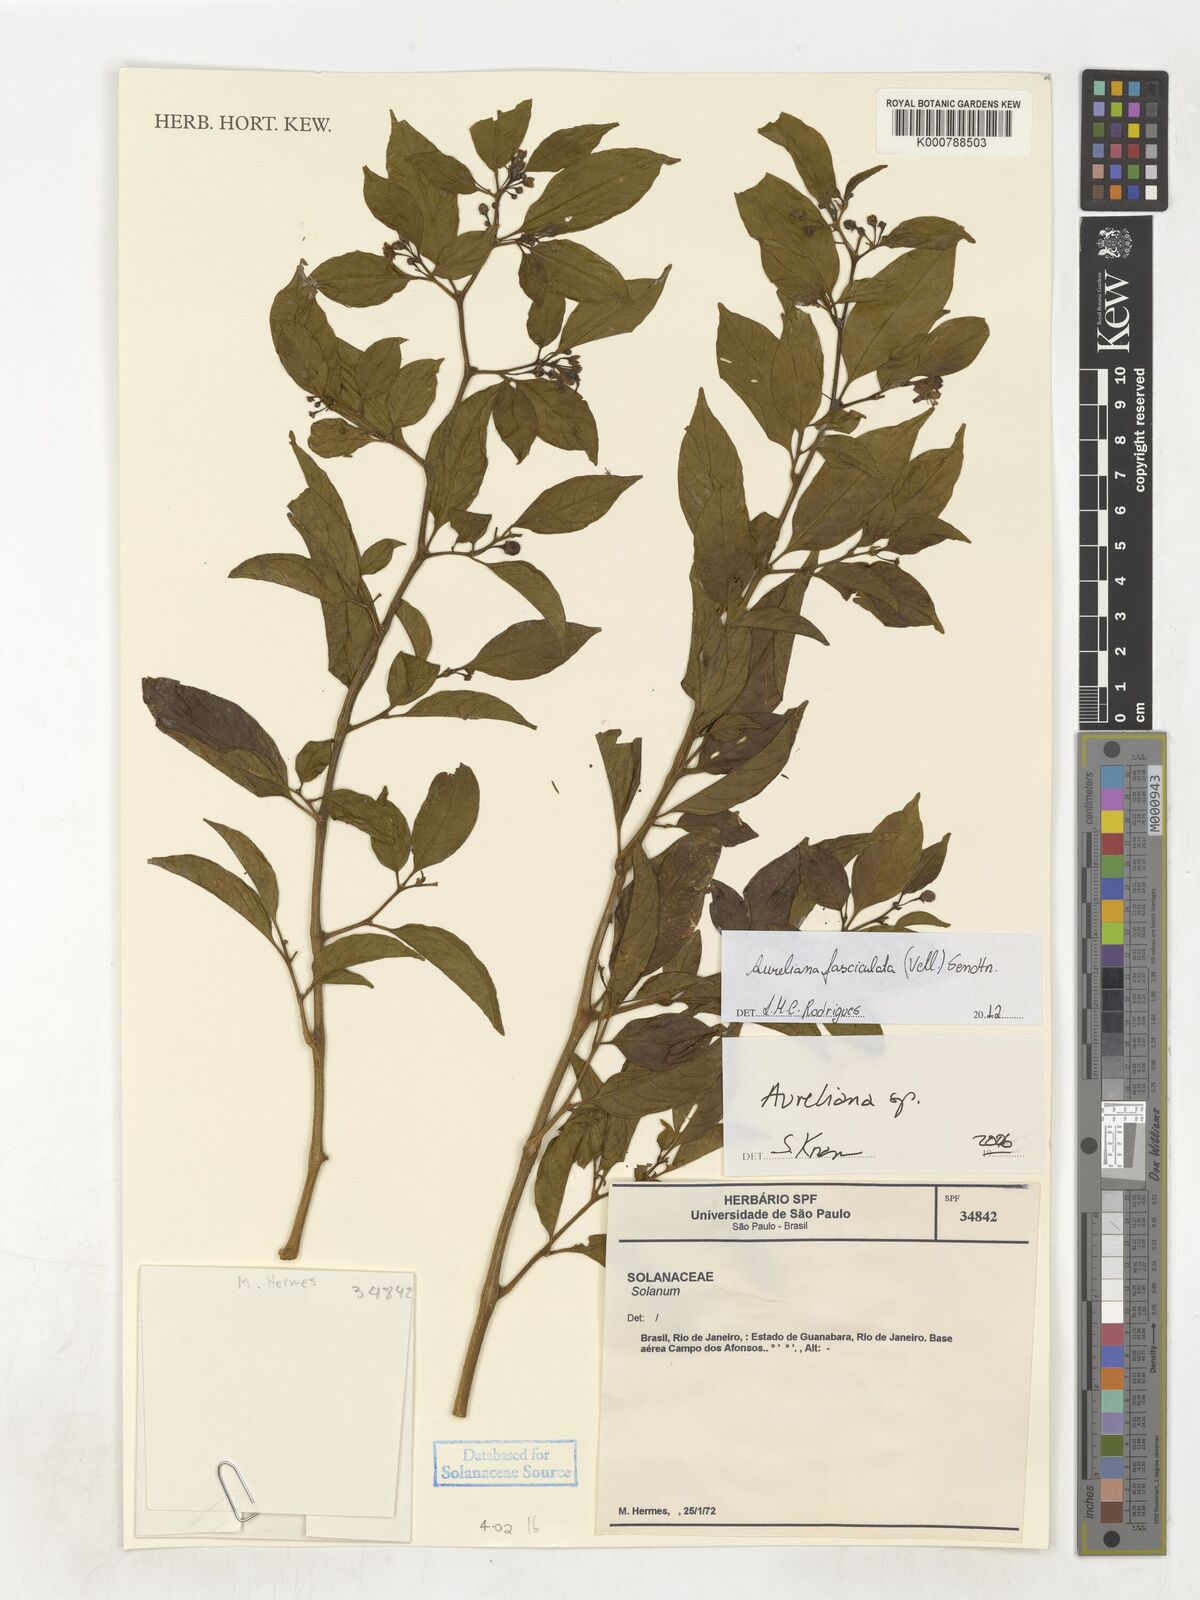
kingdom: Plantae
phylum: Tracheophyta
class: Magnoliopsida
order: Solanales
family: Solanaceae
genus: Athenaea
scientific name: Athenaea fasciculata
